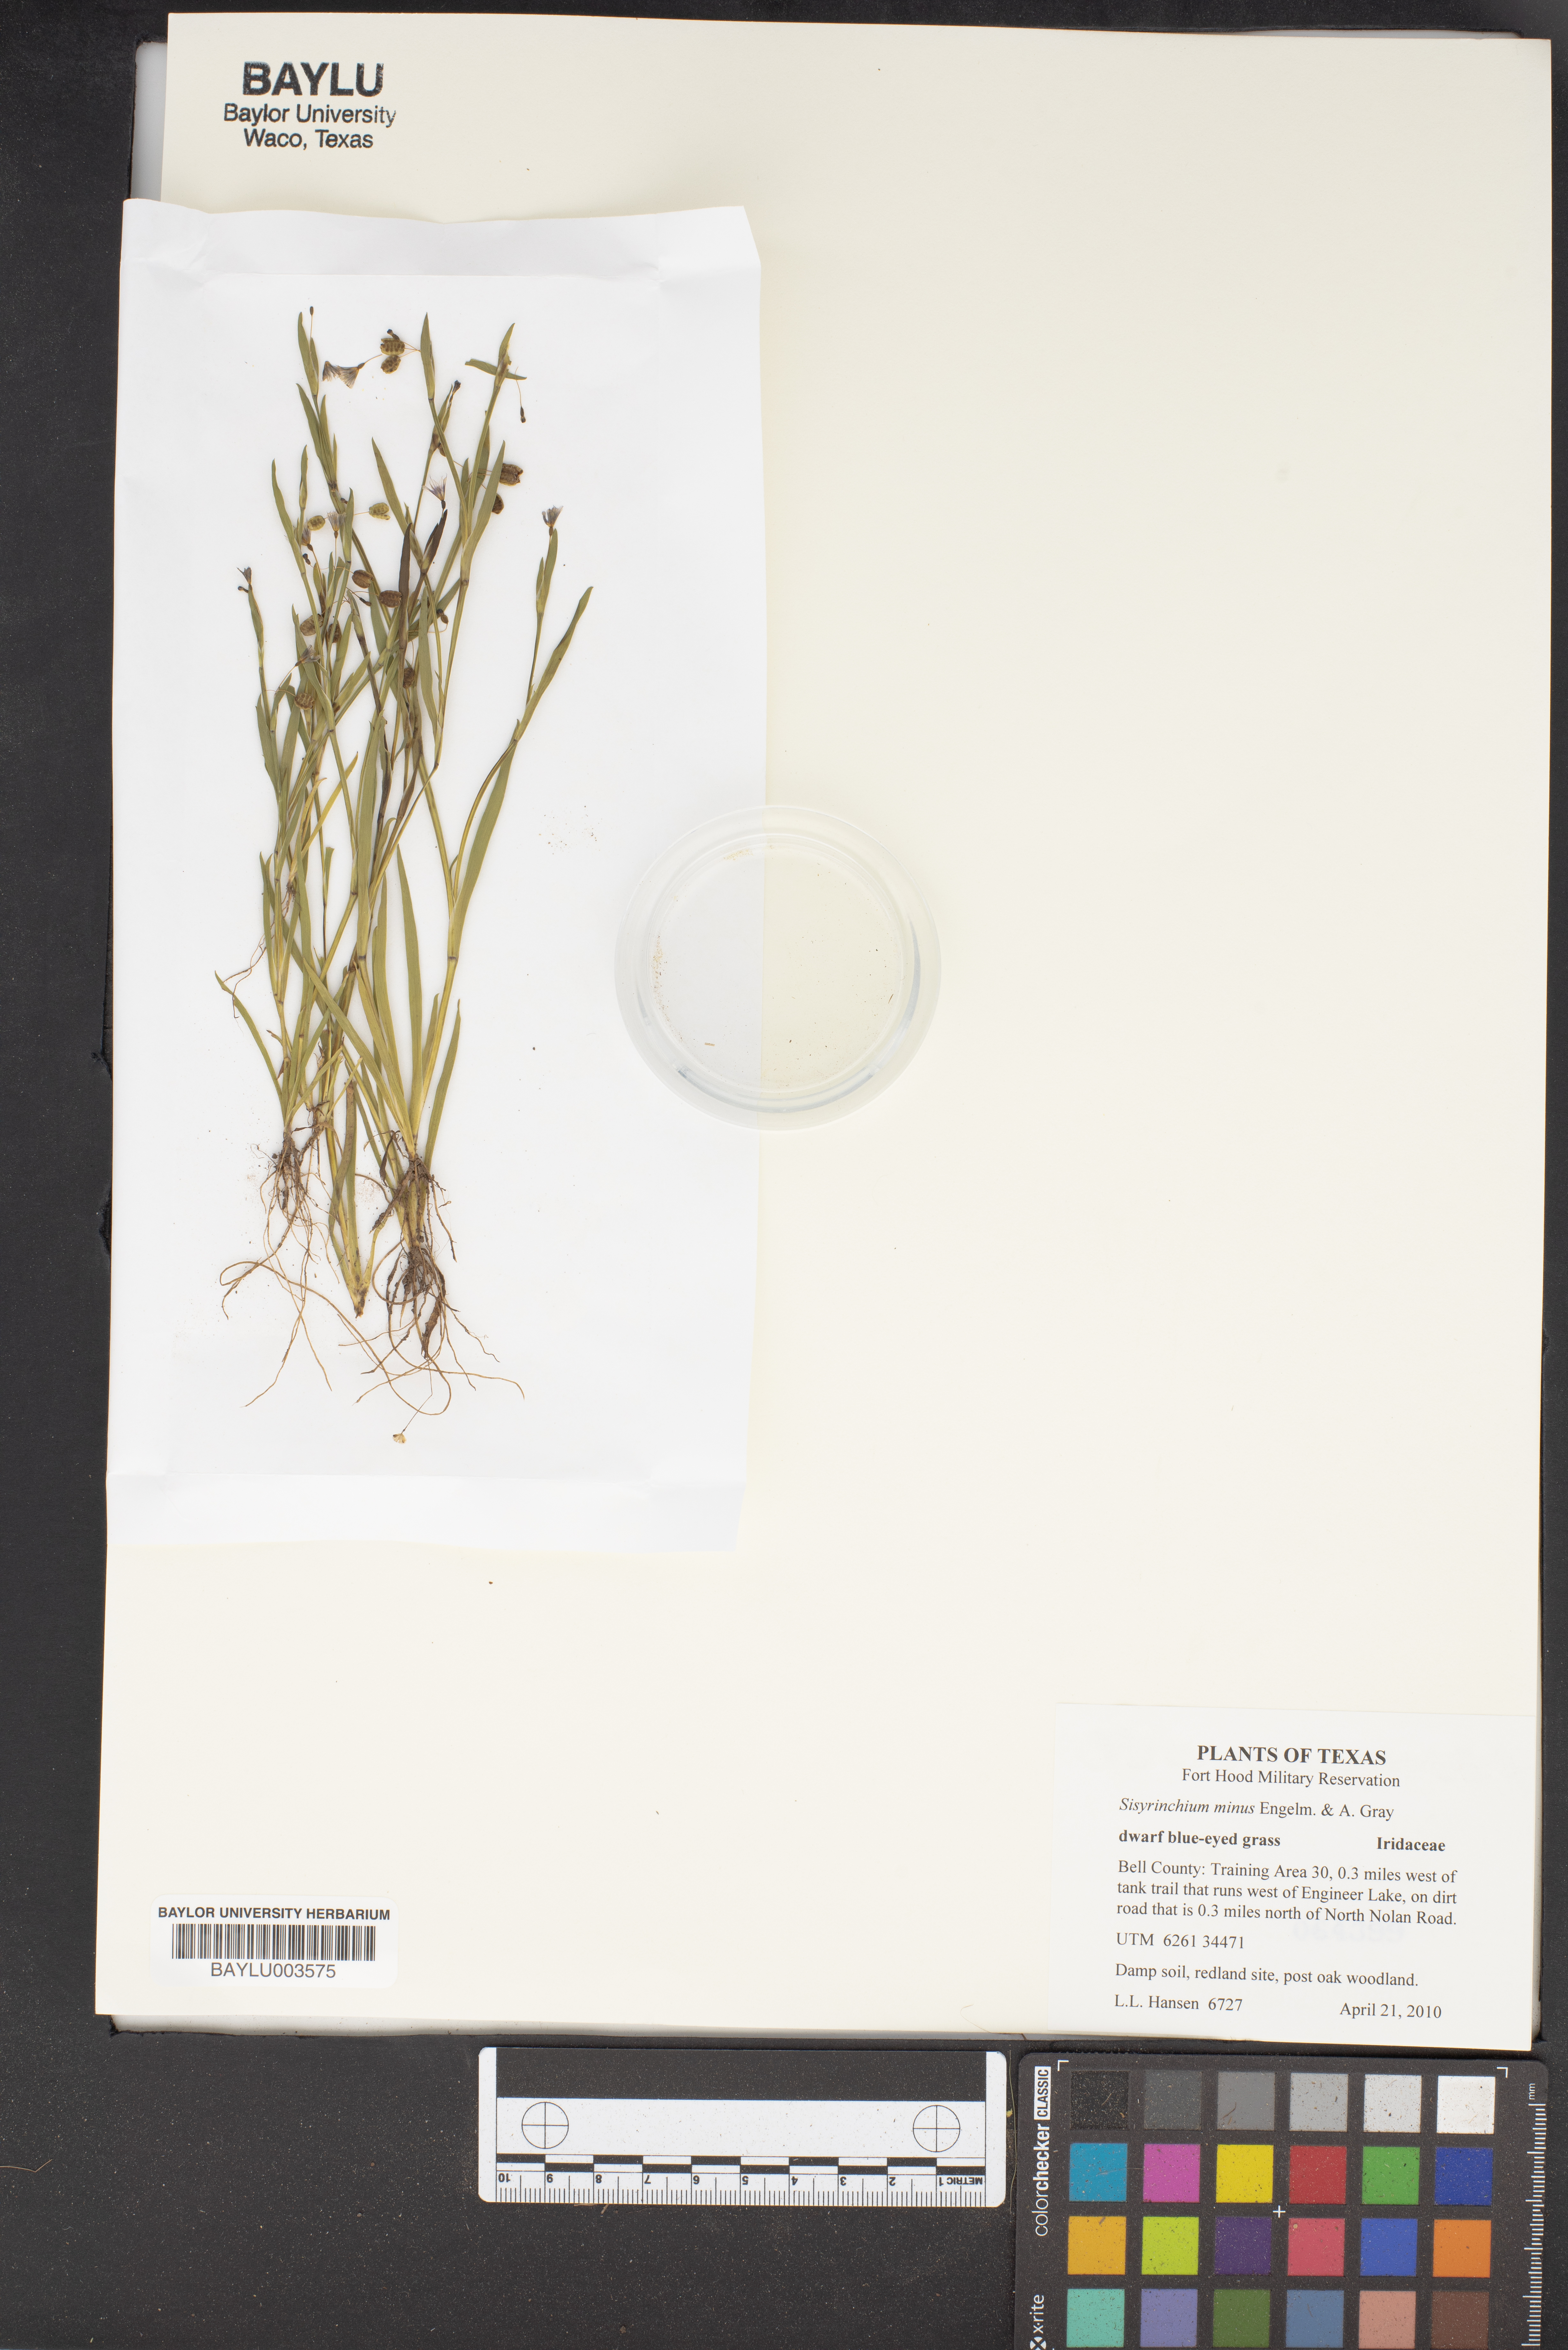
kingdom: Plantae
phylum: Tracheophyta
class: Liliopsida
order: Asparagales
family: Iridaceae
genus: Sisyrinchium
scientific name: Sisyrinchium minus
